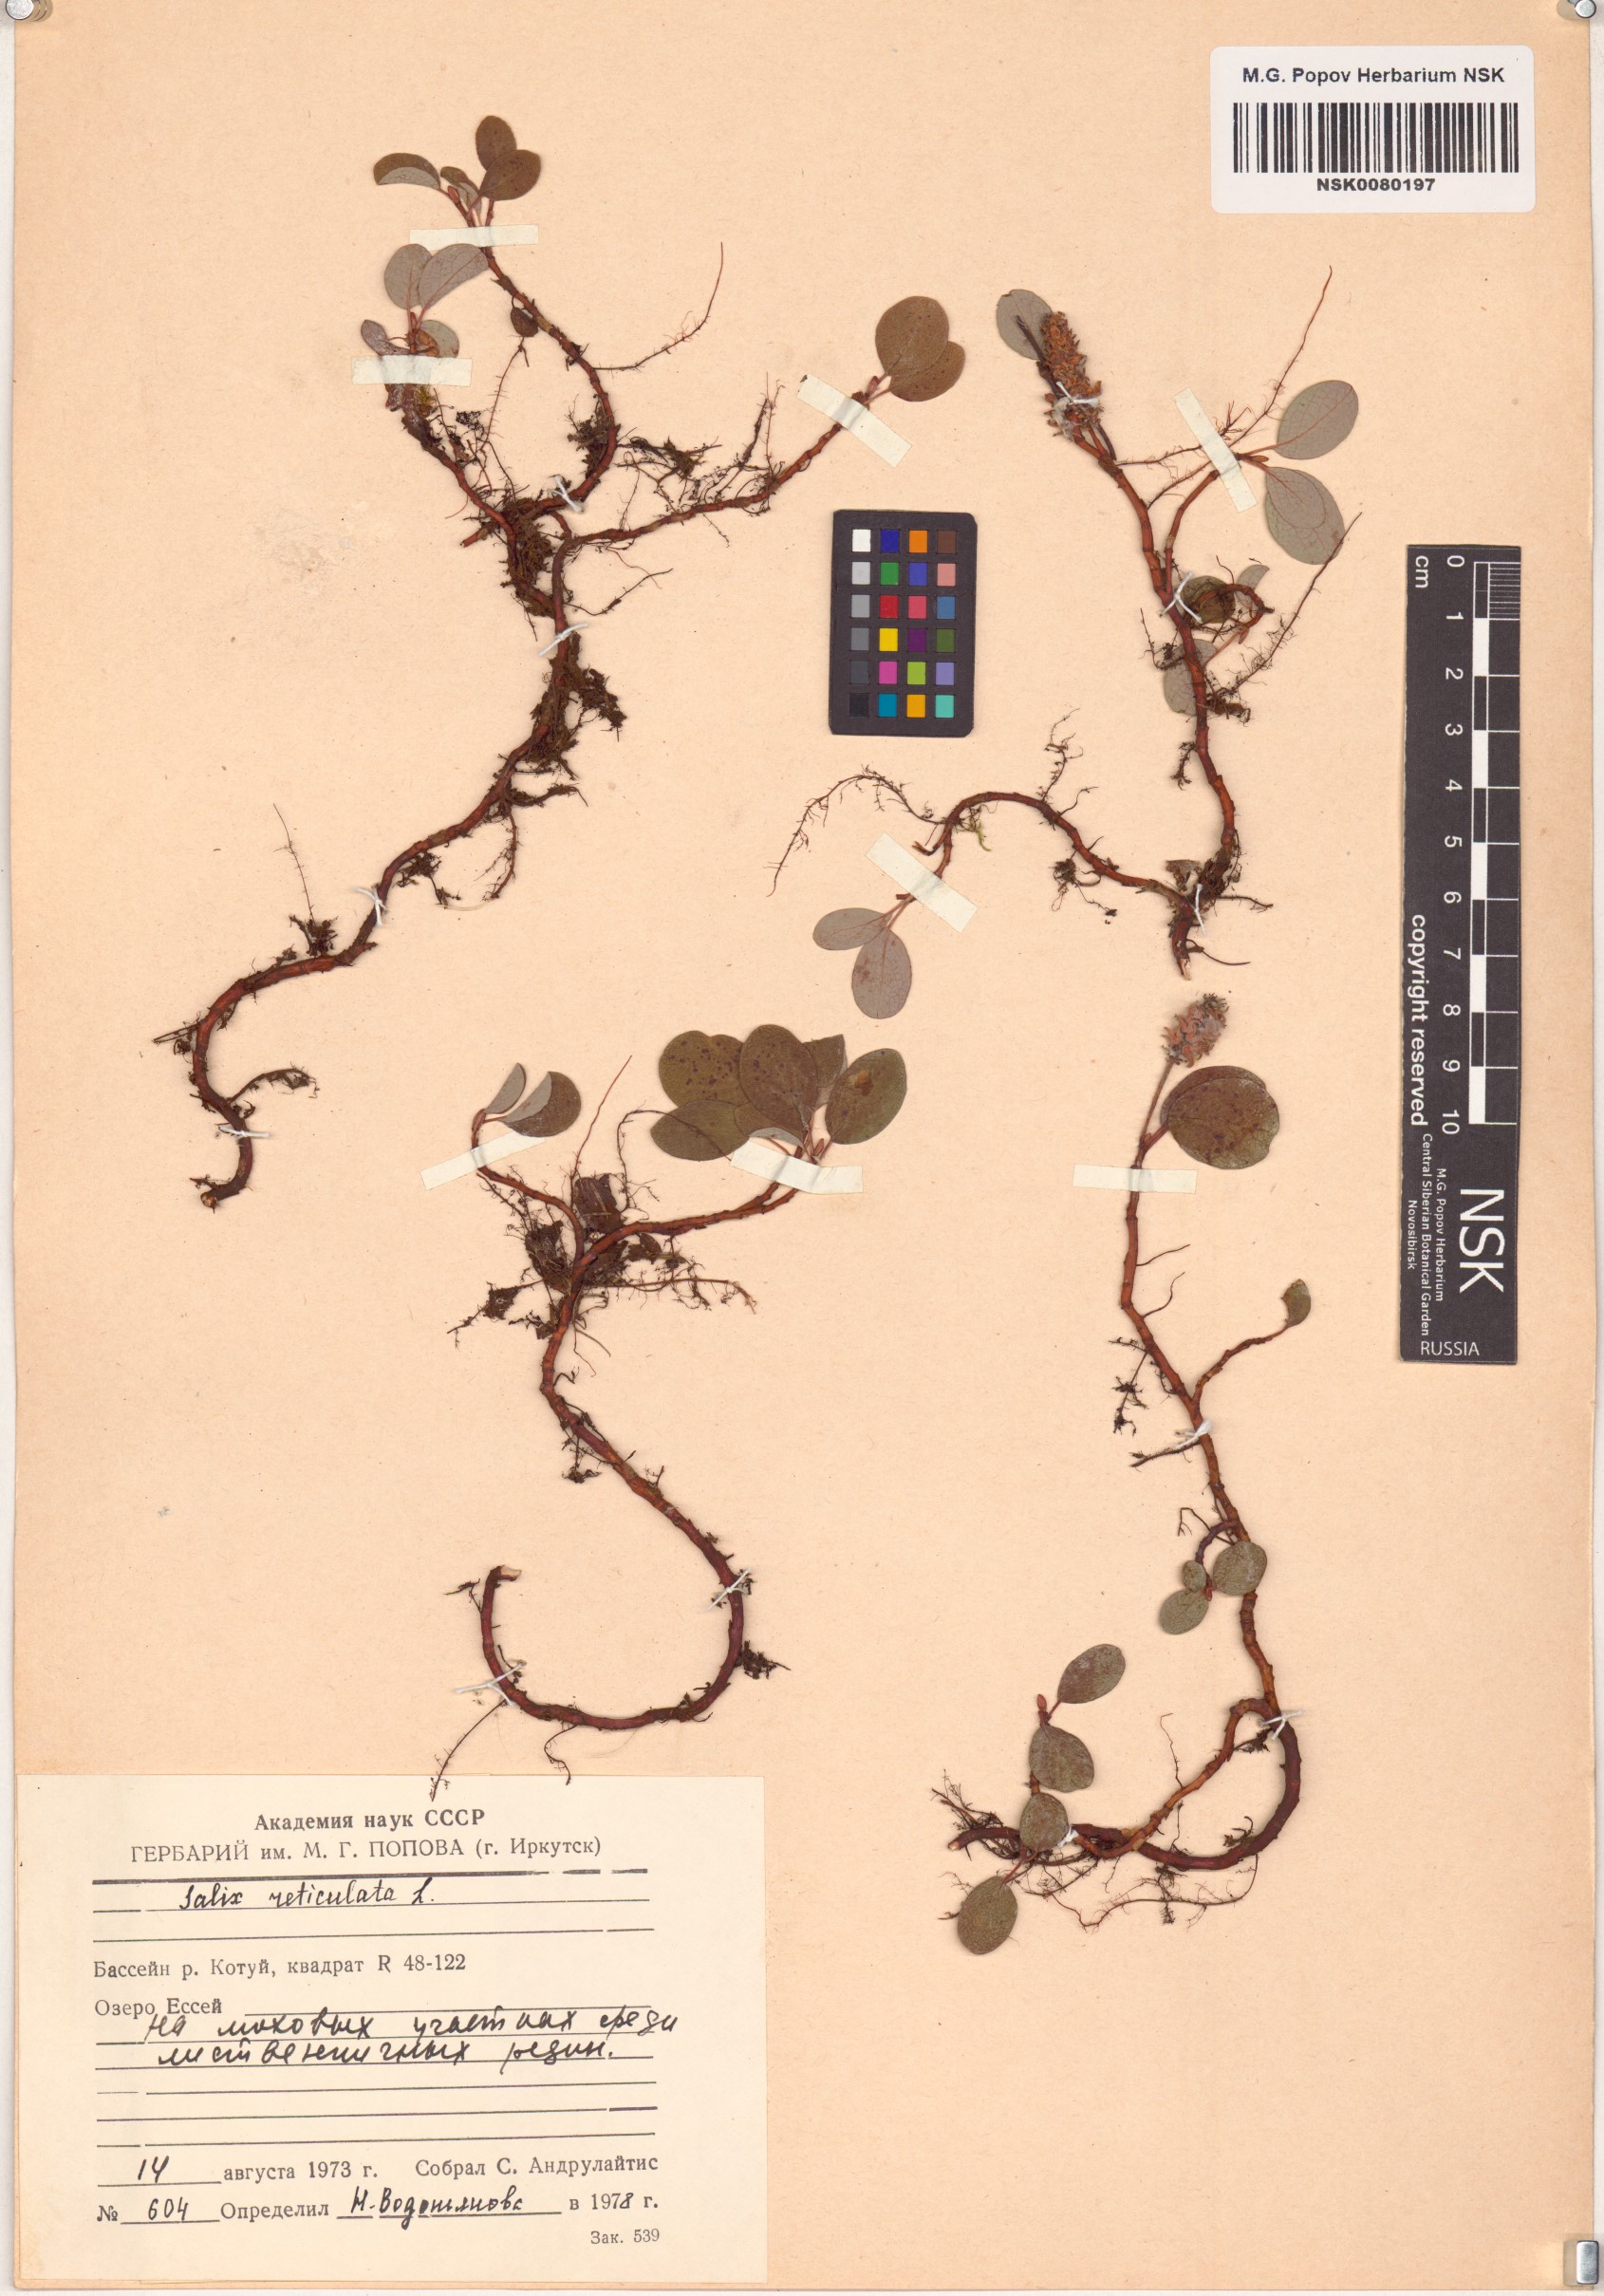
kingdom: Plantae
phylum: Tracheophyta
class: Magnoliopsida
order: Malpighiales
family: Salicaceae
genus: Salix
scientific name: Salix reticulata
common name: Net-leaved willow
